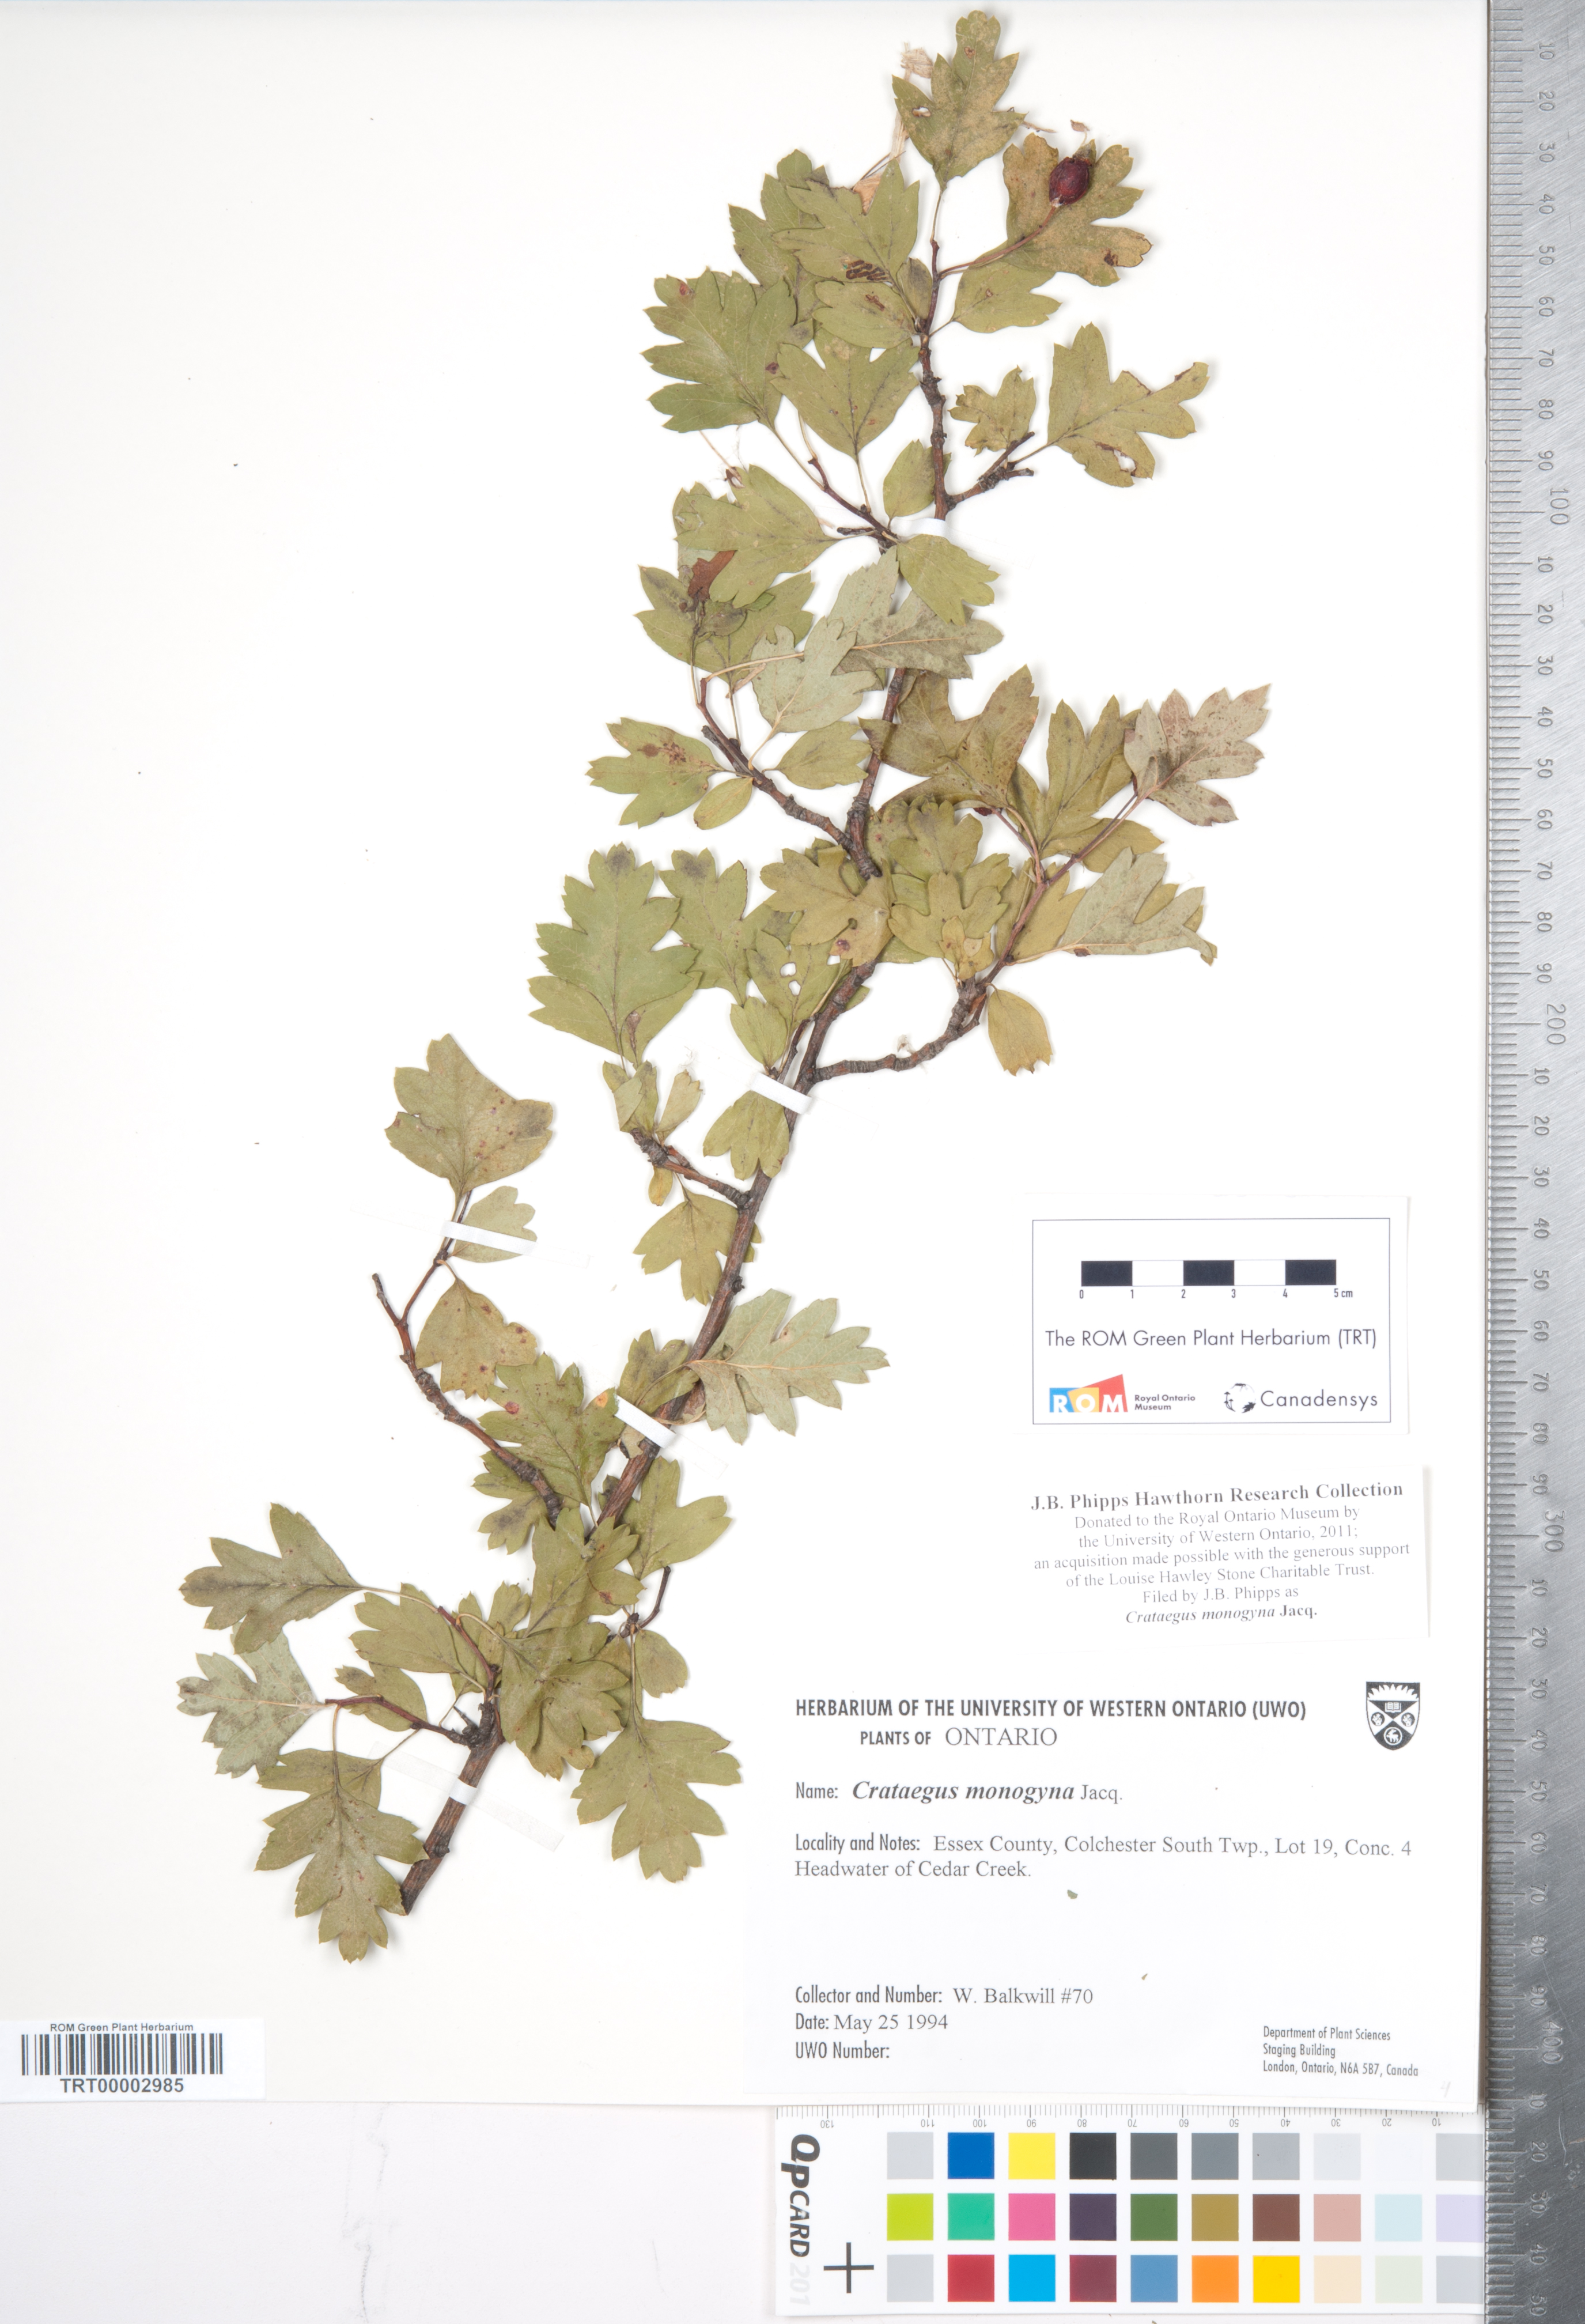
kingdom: Plantae
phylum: Tracheophyta
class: Magnoliopsida
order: Rosales
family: Rosaceae
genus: Crataegus
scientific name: Crataegus monogyna
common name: Hawthorn
